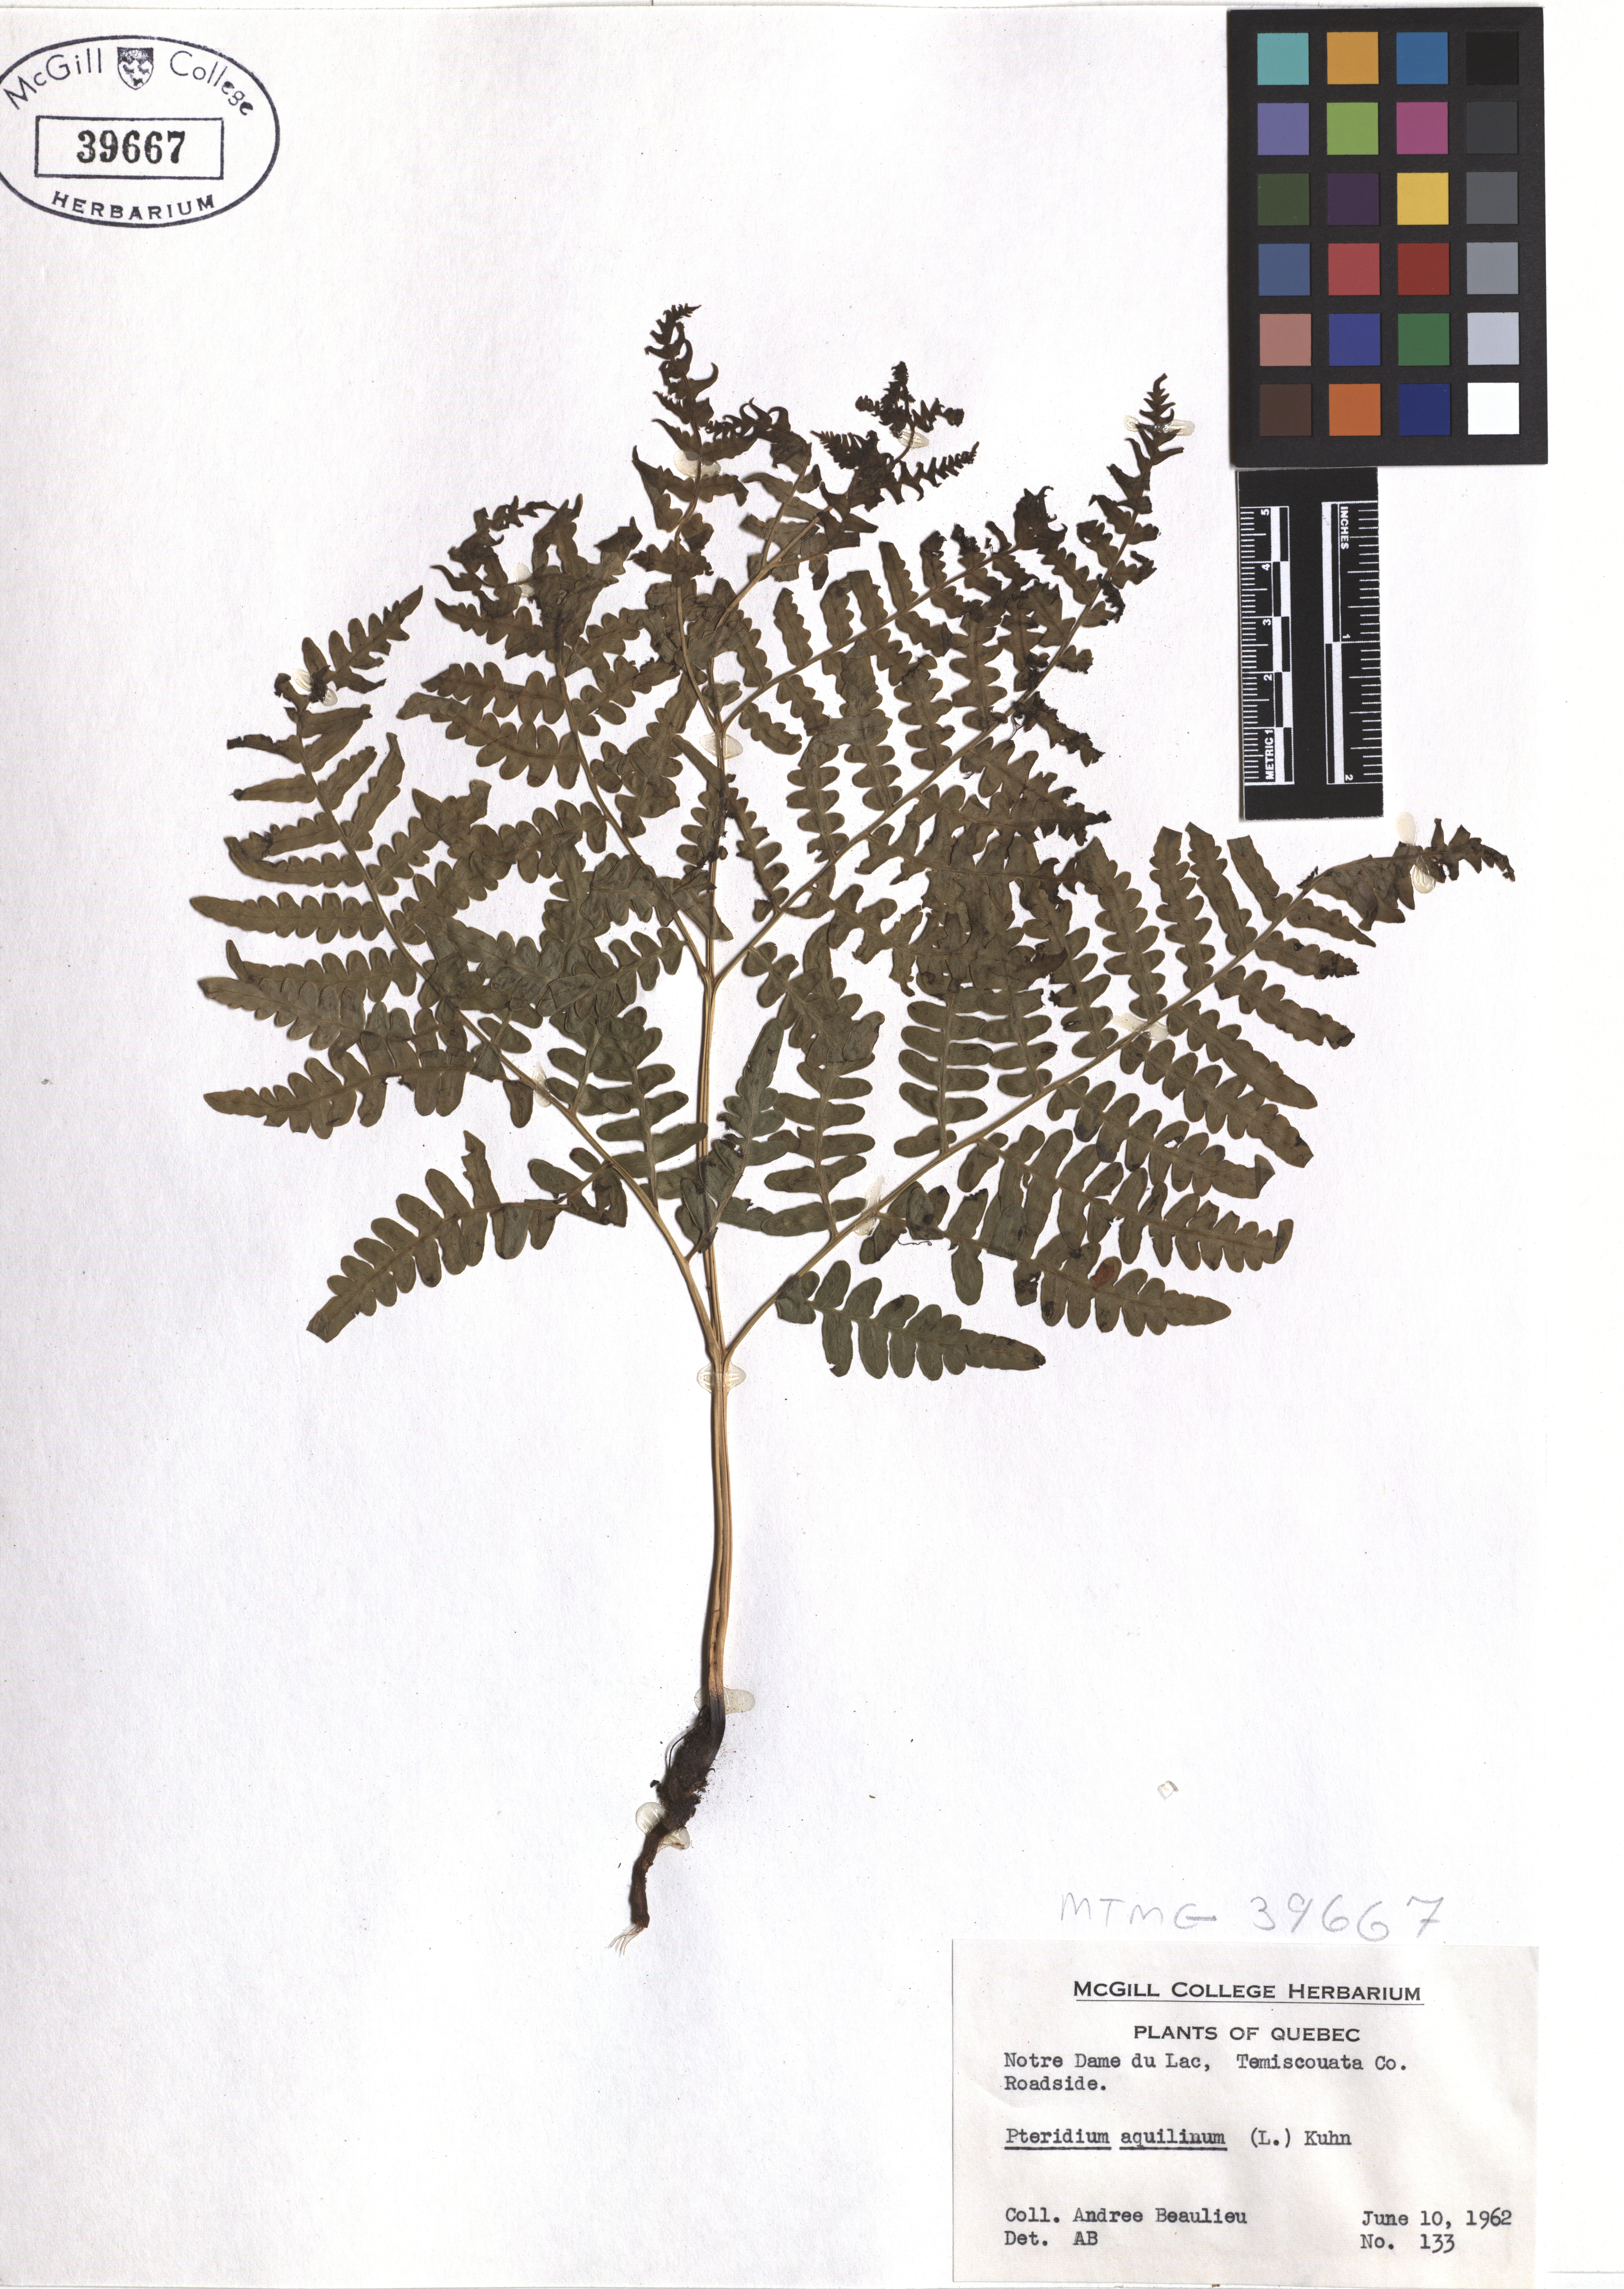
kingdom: Plantae
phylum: Tracheophyta
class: Polypodiopsida
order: Polypodiales
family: Dennstaedtiaceae
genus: Pteridium
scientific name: Pteridium aquilinum
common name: Bracken
